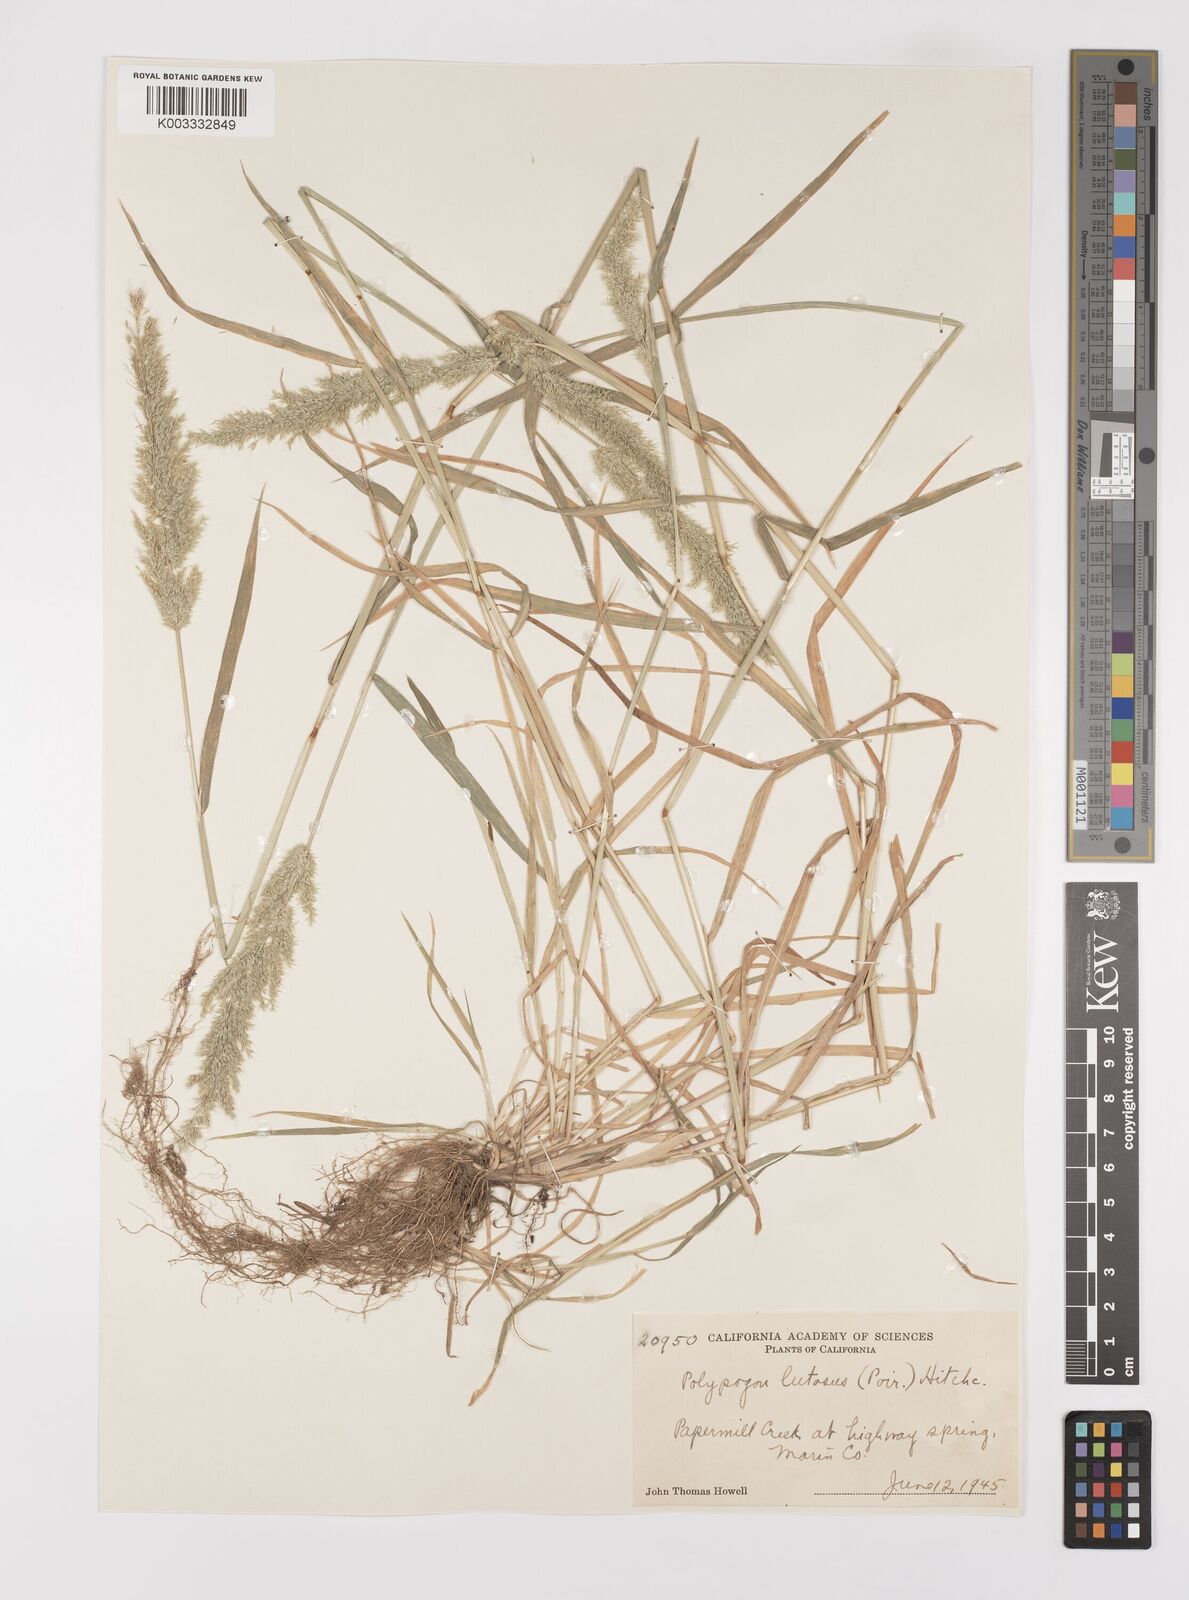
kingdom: Plantae
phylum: Tracheophyta
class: Liliopsida
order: Poales
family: Poaceae
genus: Polypogon
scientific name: Polypogon interruptus
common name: Ditch polypogon
